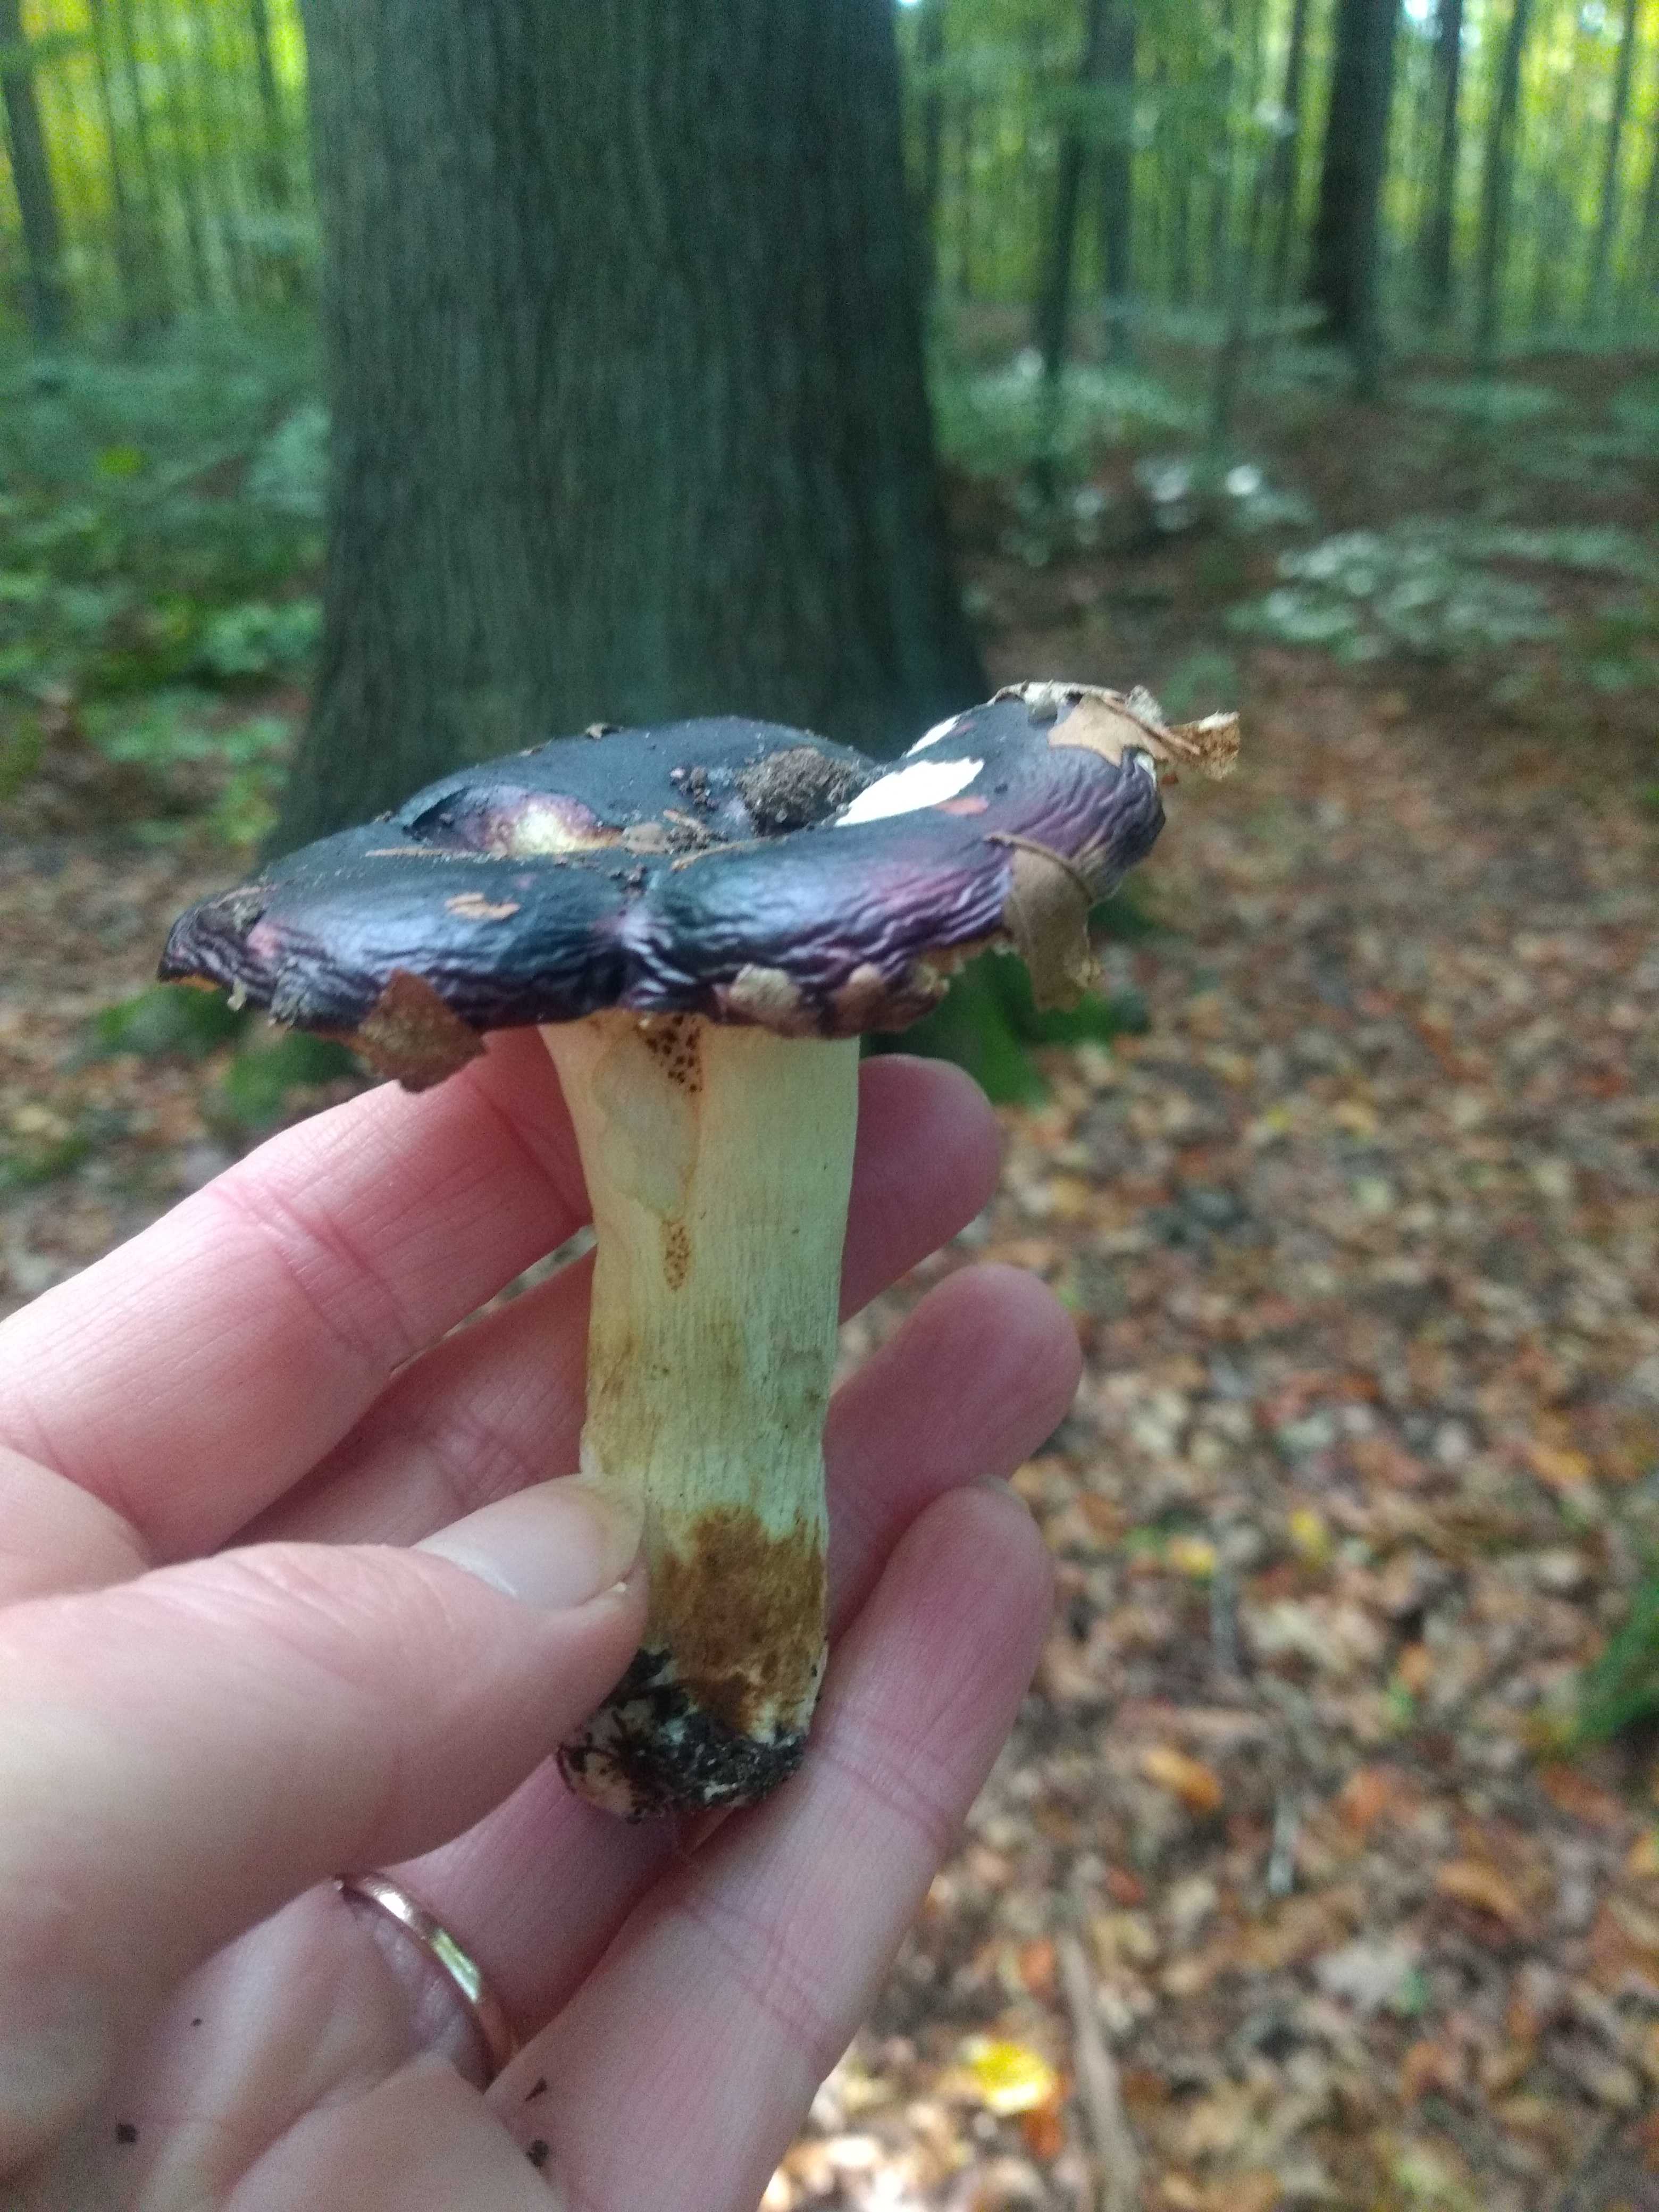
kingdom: Fungi
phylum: Basidiomycota
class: Agaricomycetes
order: Russulales
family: Russulaceae
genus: Russula
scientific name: Russula atropurpurea
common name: purpurbroget skørhat
